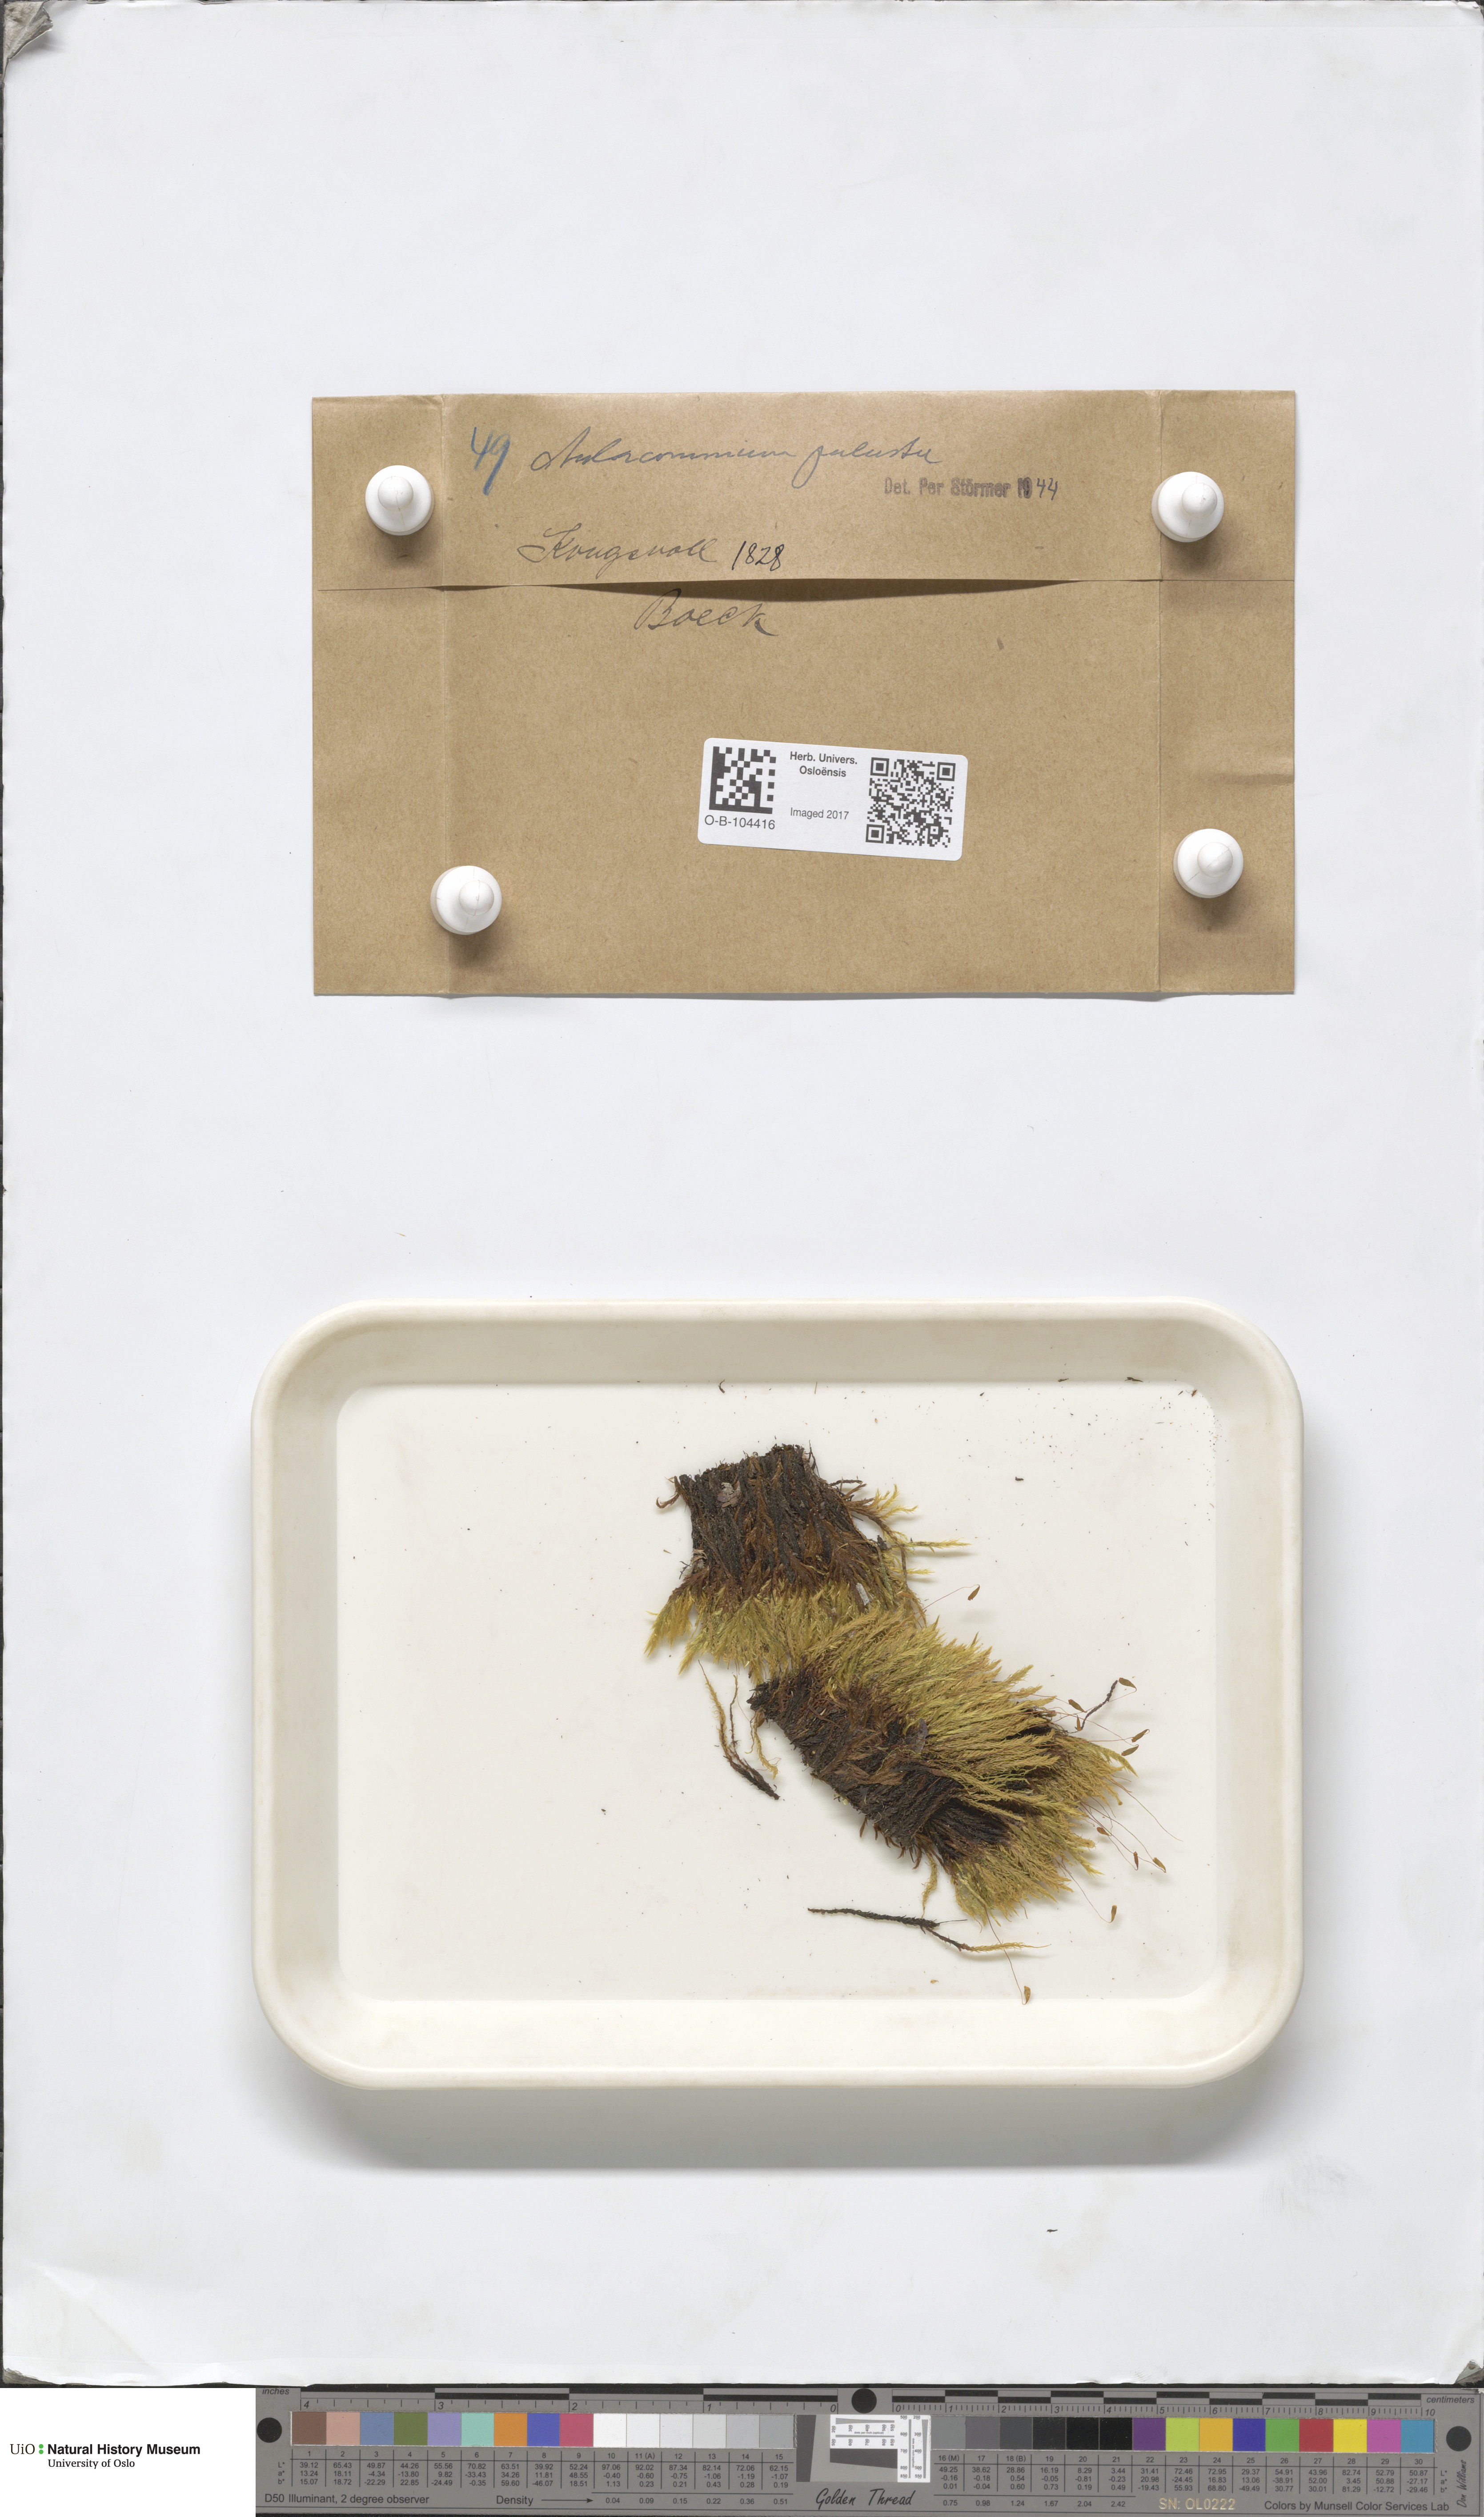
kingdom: Plantae
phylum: Bryophyta
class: Bryopsida
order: Aulacomniales
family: Aulacomniaceae
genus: Aulacomnium
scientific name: Aulacomnium palustre
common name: Bog groove-moss
